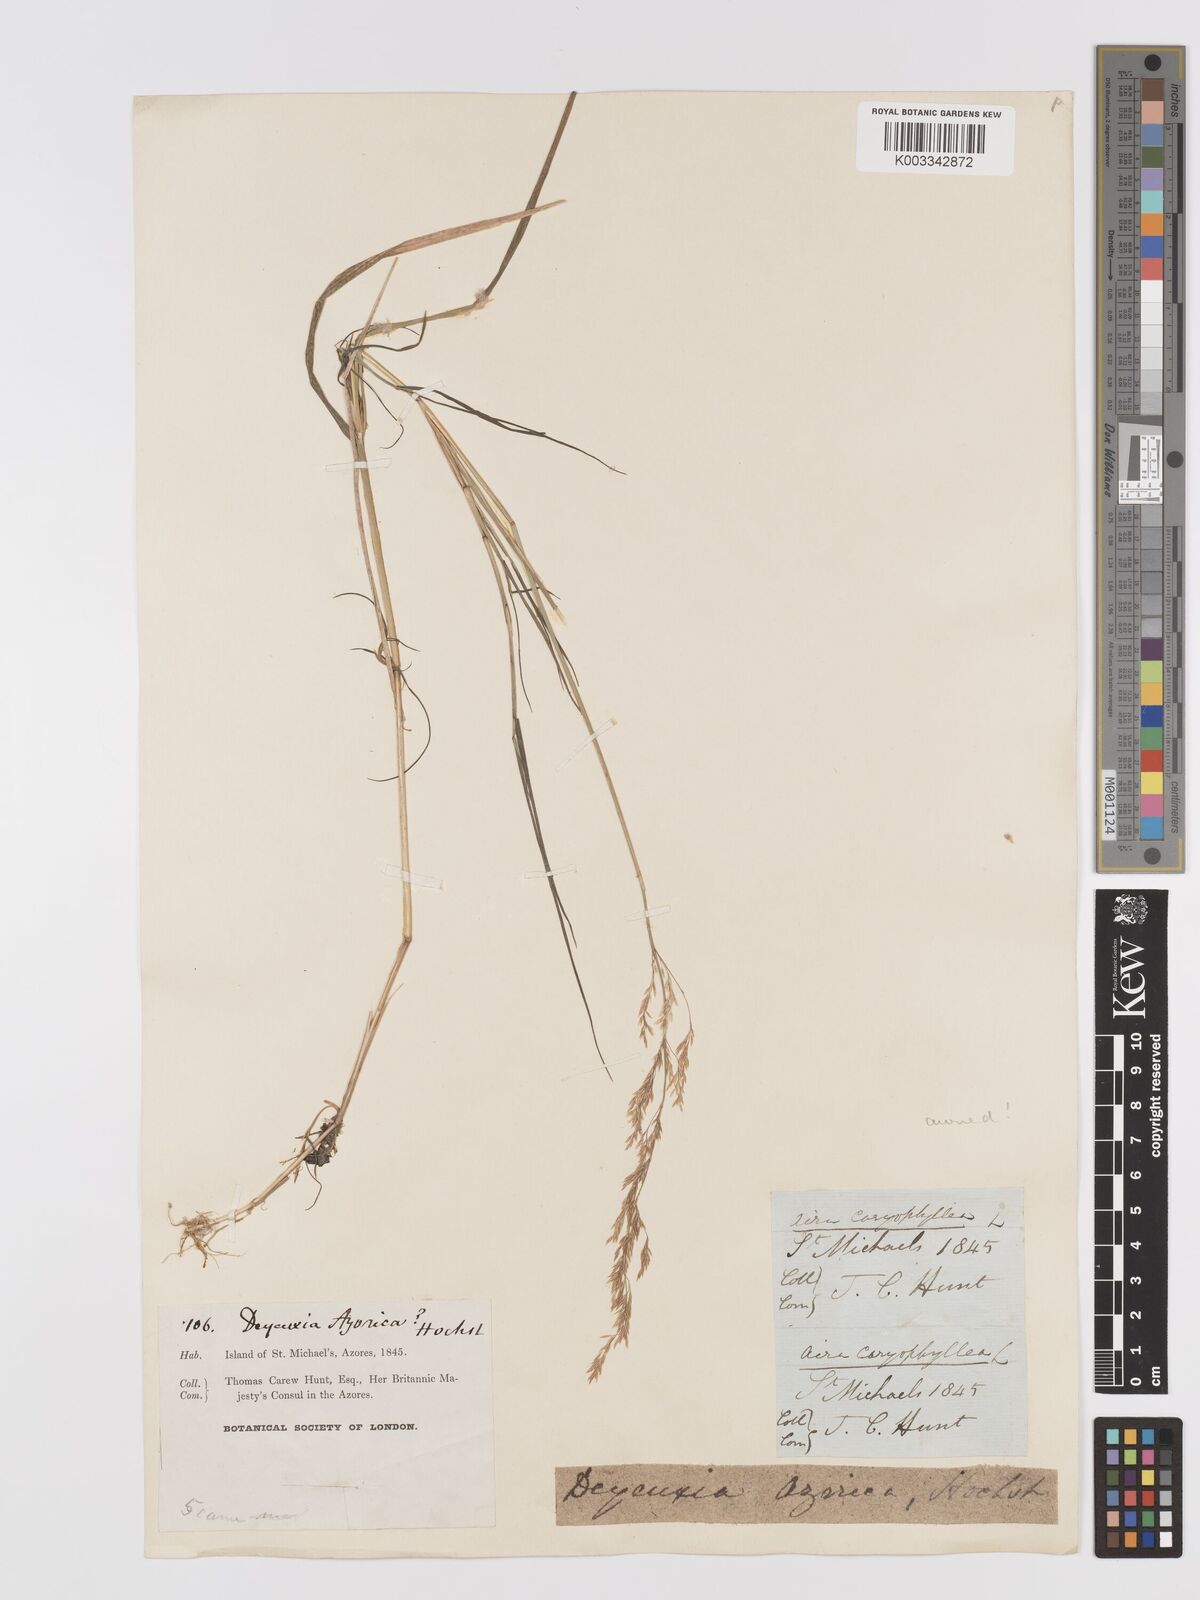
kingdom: Plantae
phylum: Tracheophyta
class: Liliopsida
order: Poales
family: Poaceae
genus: Agrostis
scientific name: Agrostis castellana
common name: Highland bent
